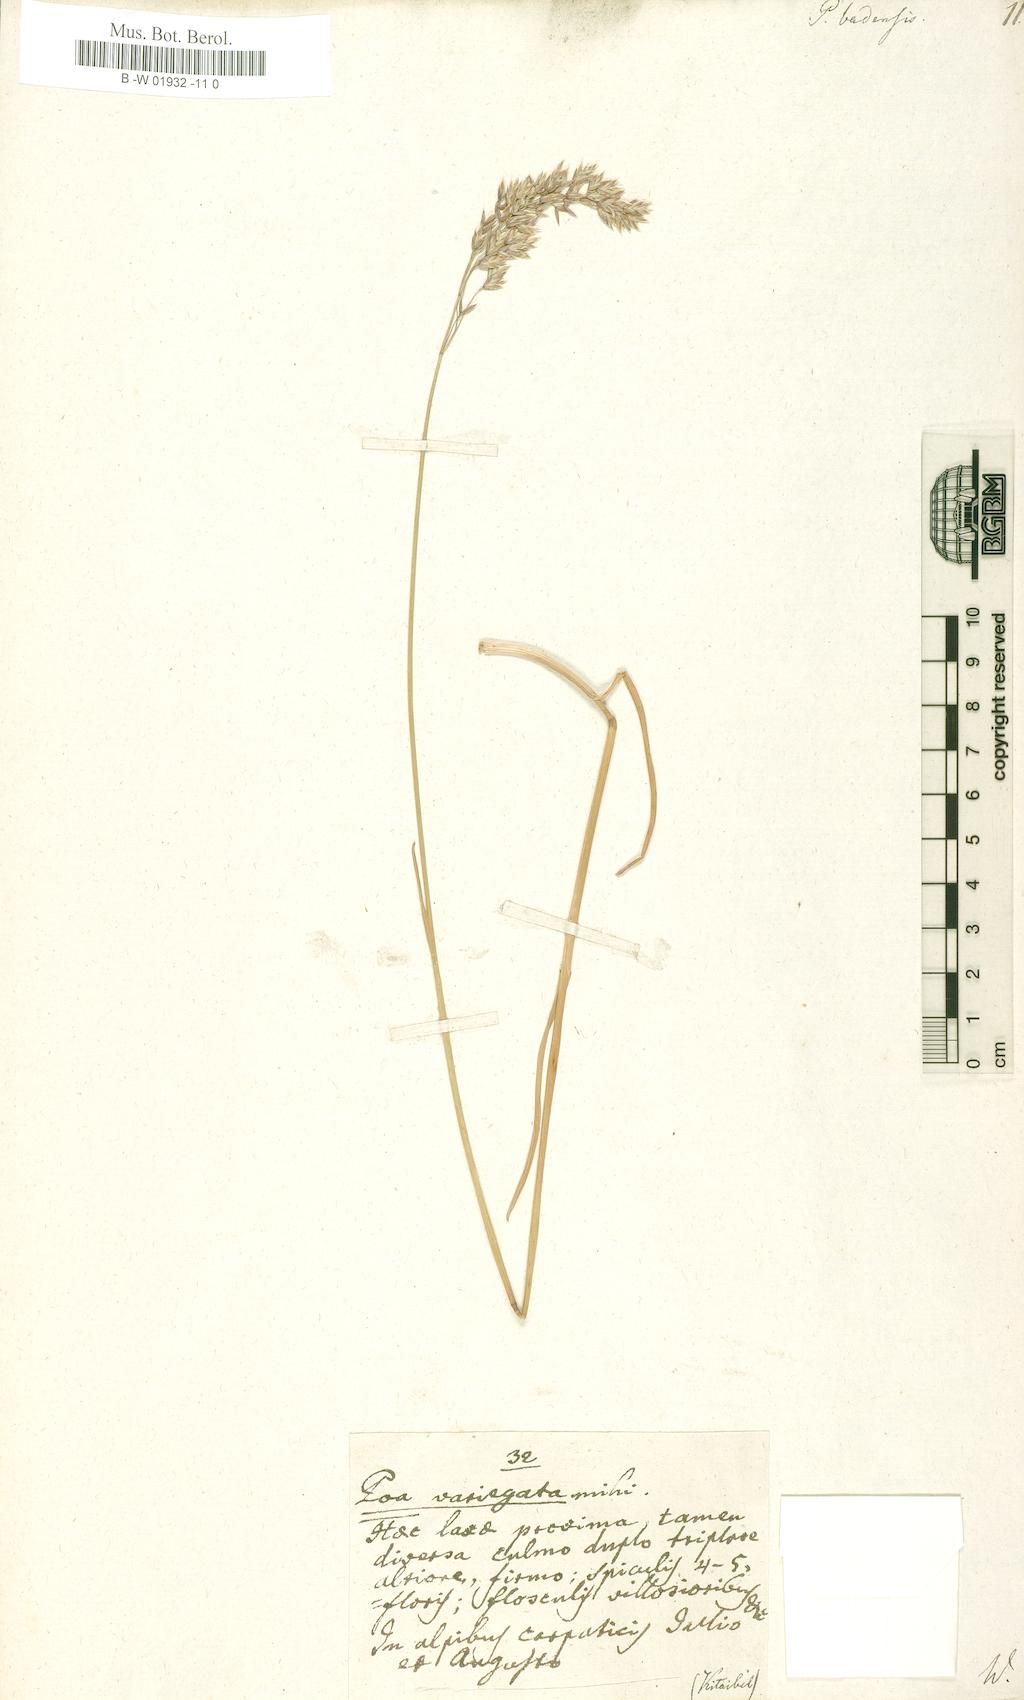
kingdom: Plantae
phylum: Tracheophyta
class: Liliopsida
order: Poales
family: Poaceae
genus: Poa
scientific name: Poa badensis
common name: Baden's bluegrass
